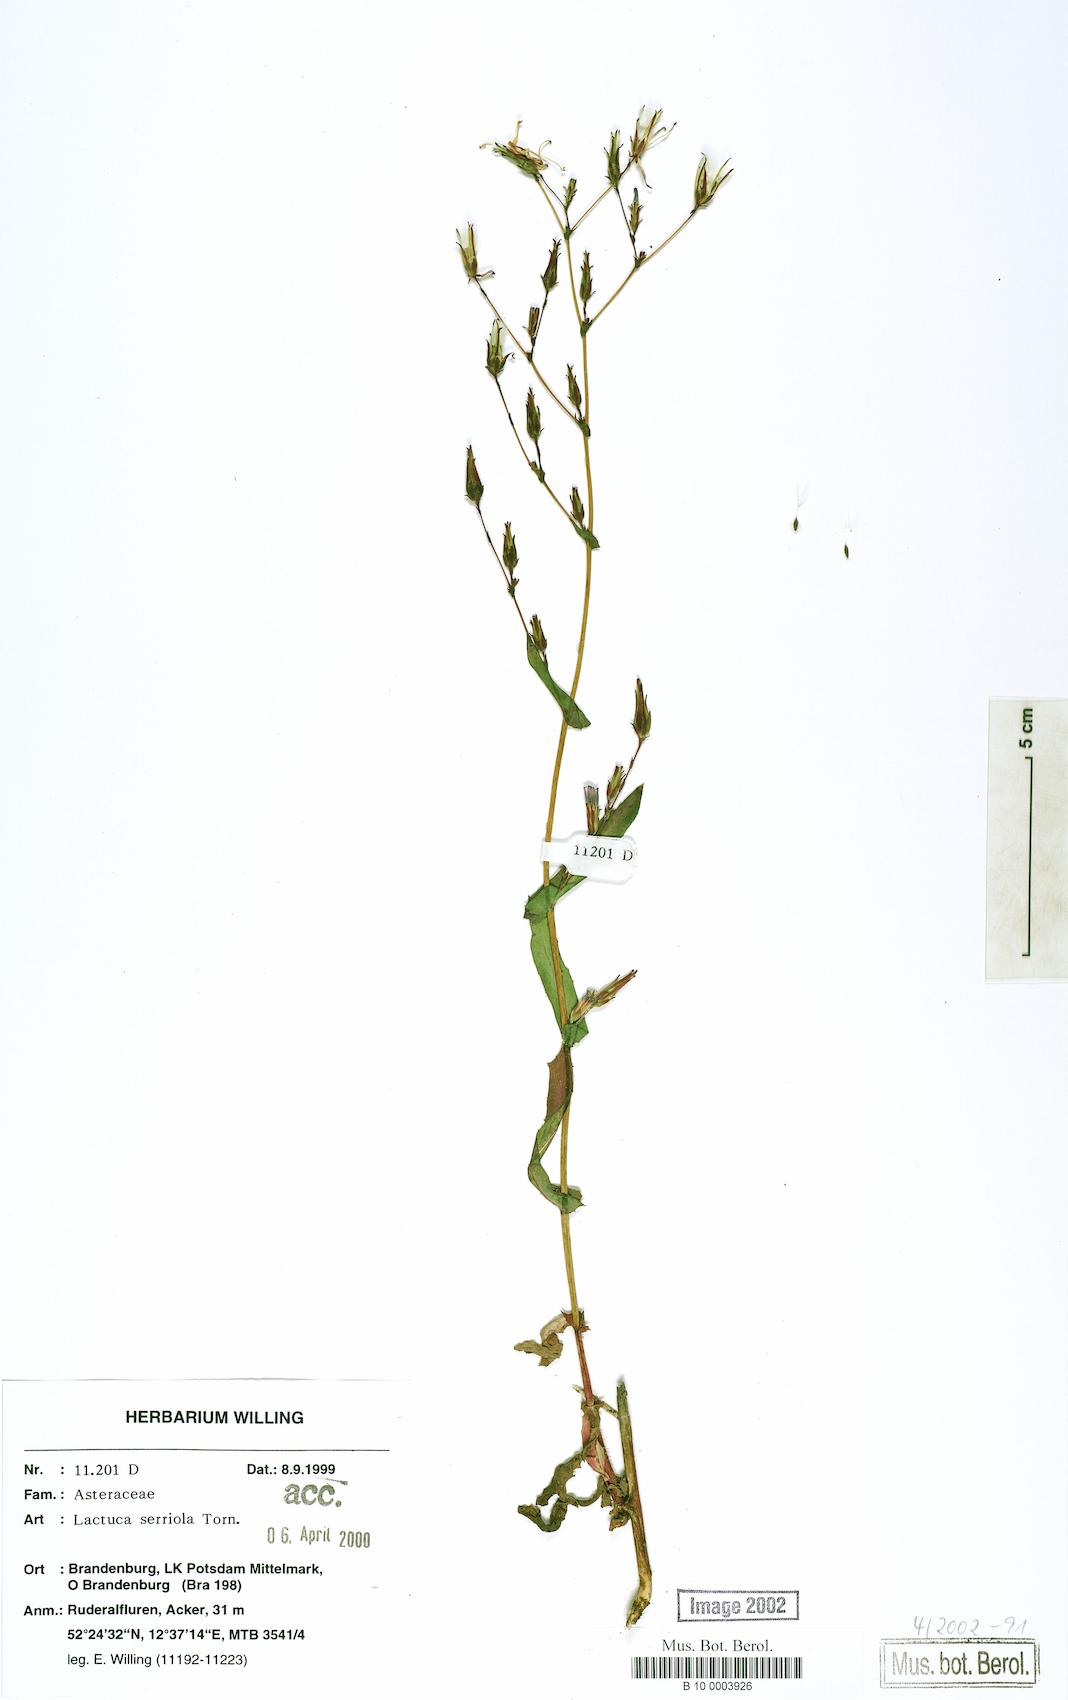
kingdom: Plantae
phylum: Tracheophyta
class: Magnoliopsida
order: Asterales
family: Asteraceae
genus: Lactuca
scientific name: Lactuca serriola
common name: Prickly lettuce
